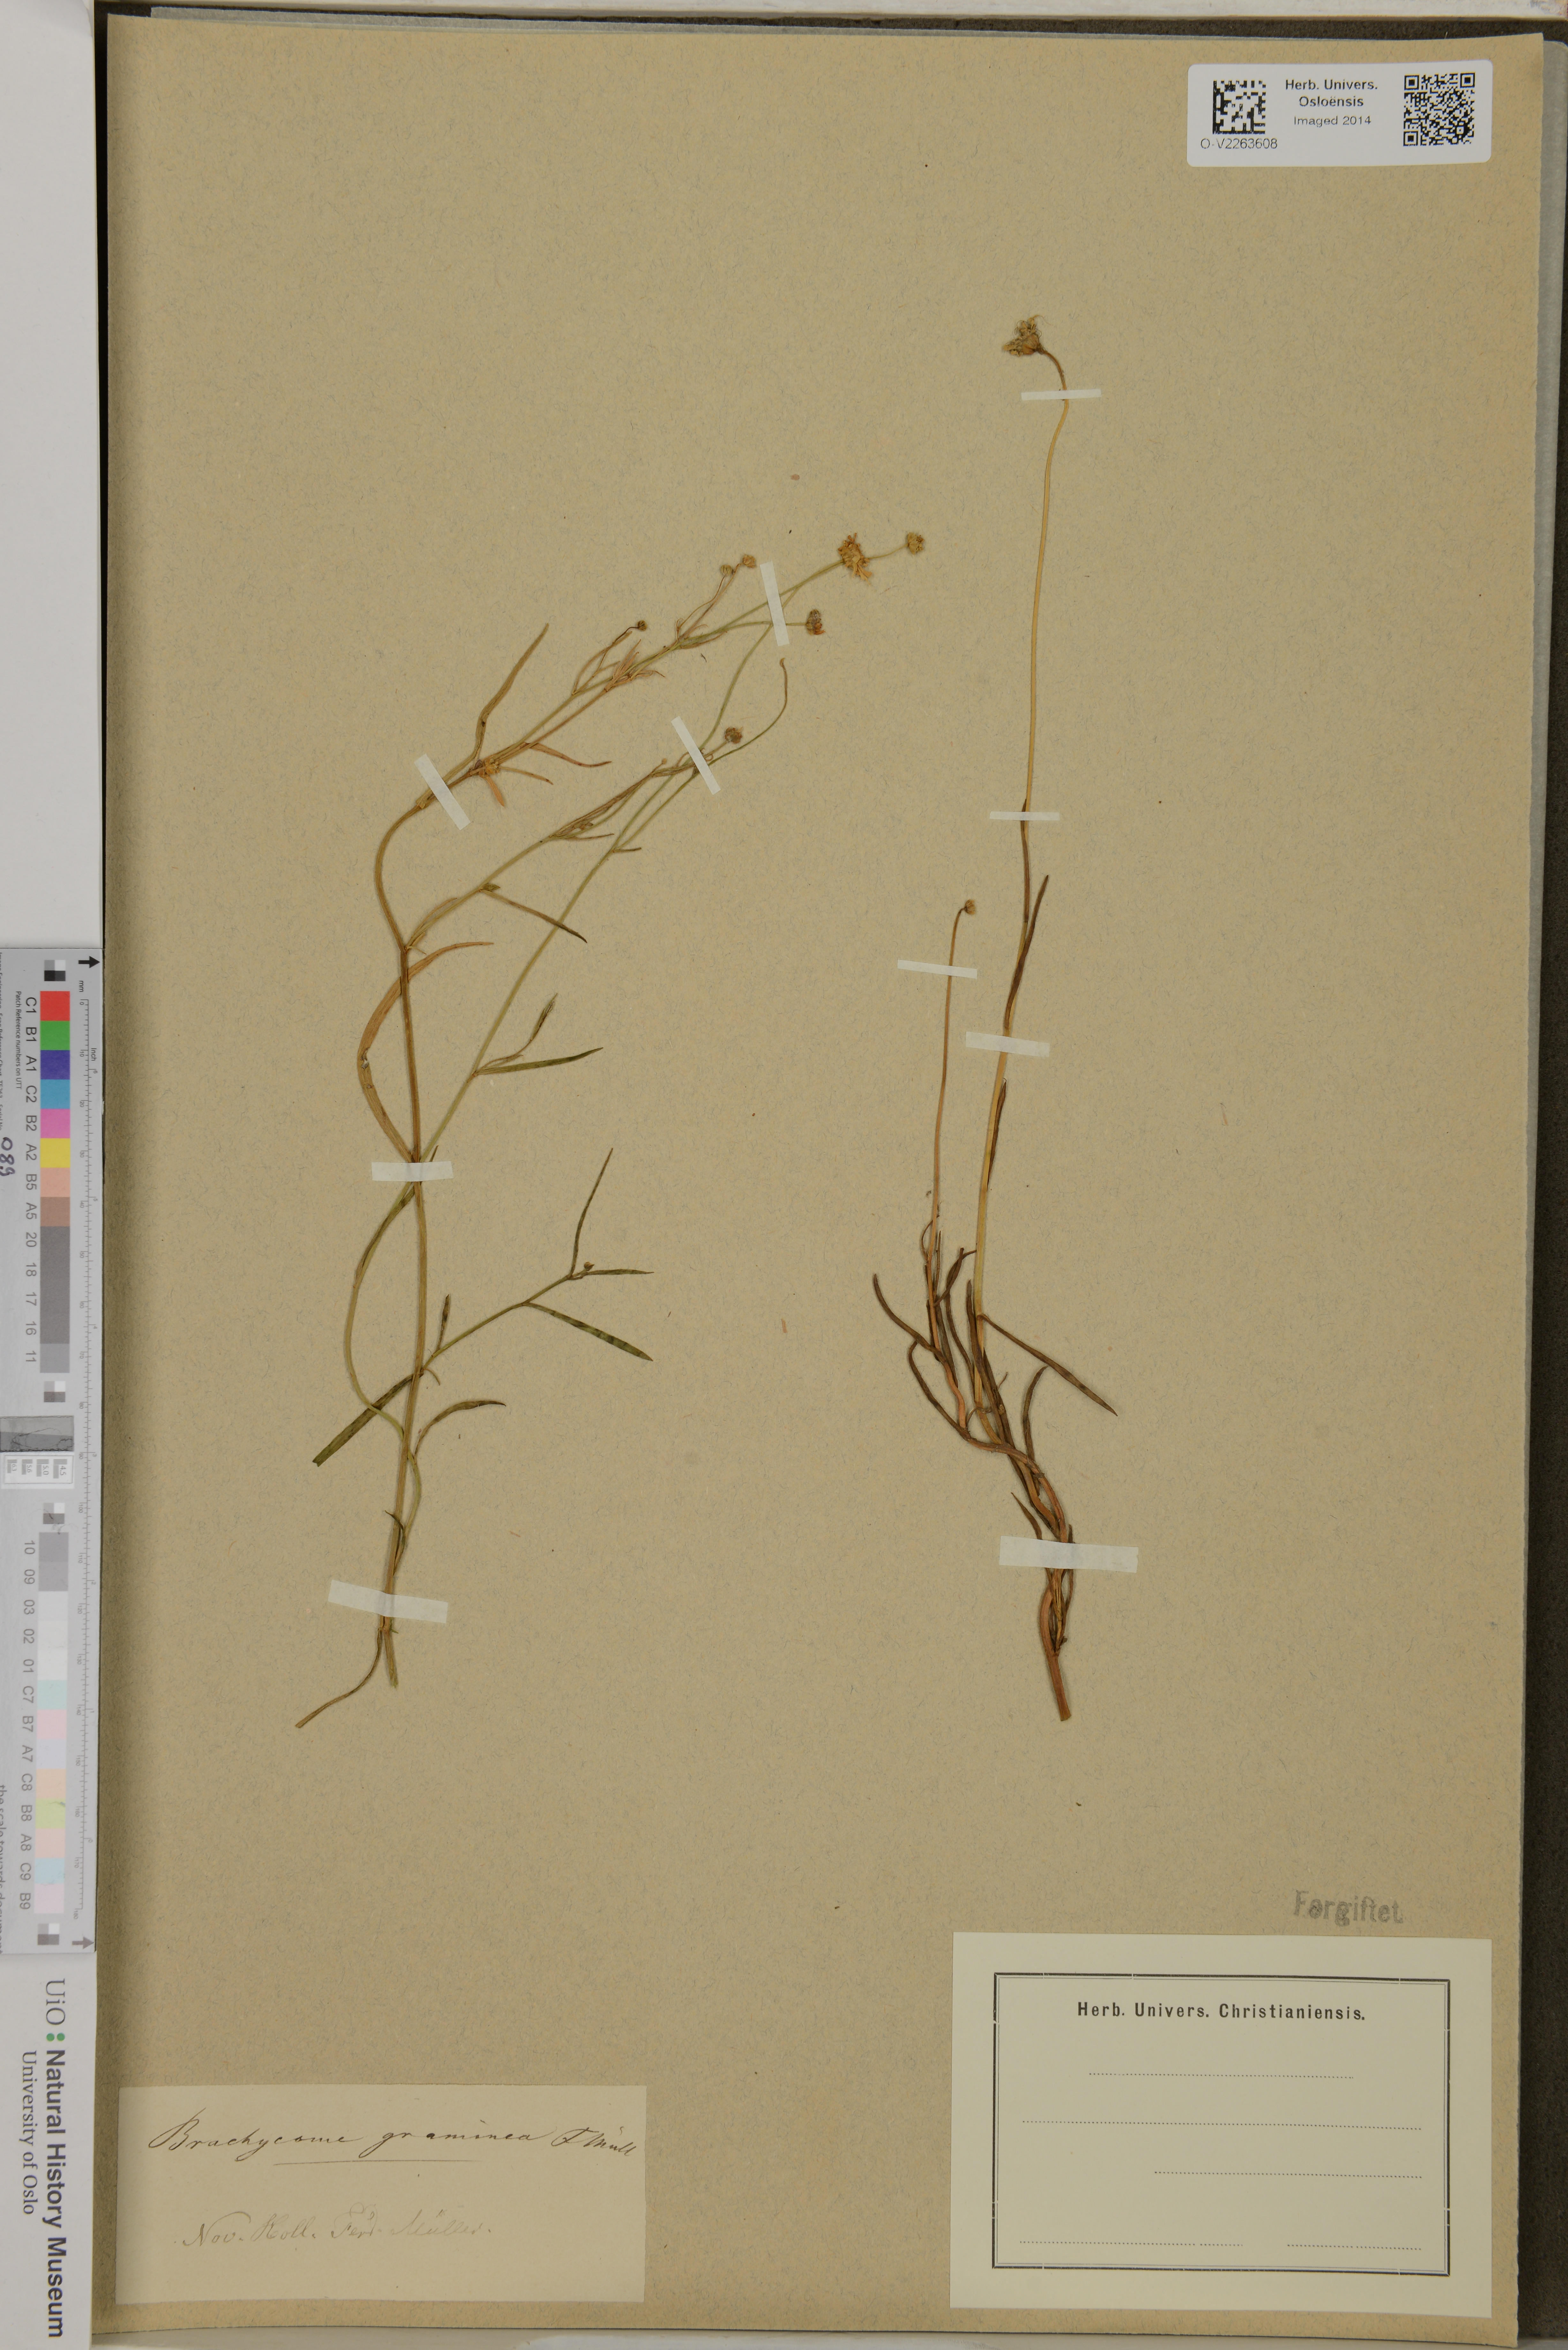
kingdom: Plantae
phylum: Tracheophyta
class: Magnoliopsida
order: Asterales
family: Asteraceae
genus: Brachyscome
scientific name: Brachyscome graminea
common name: Grass daisy
